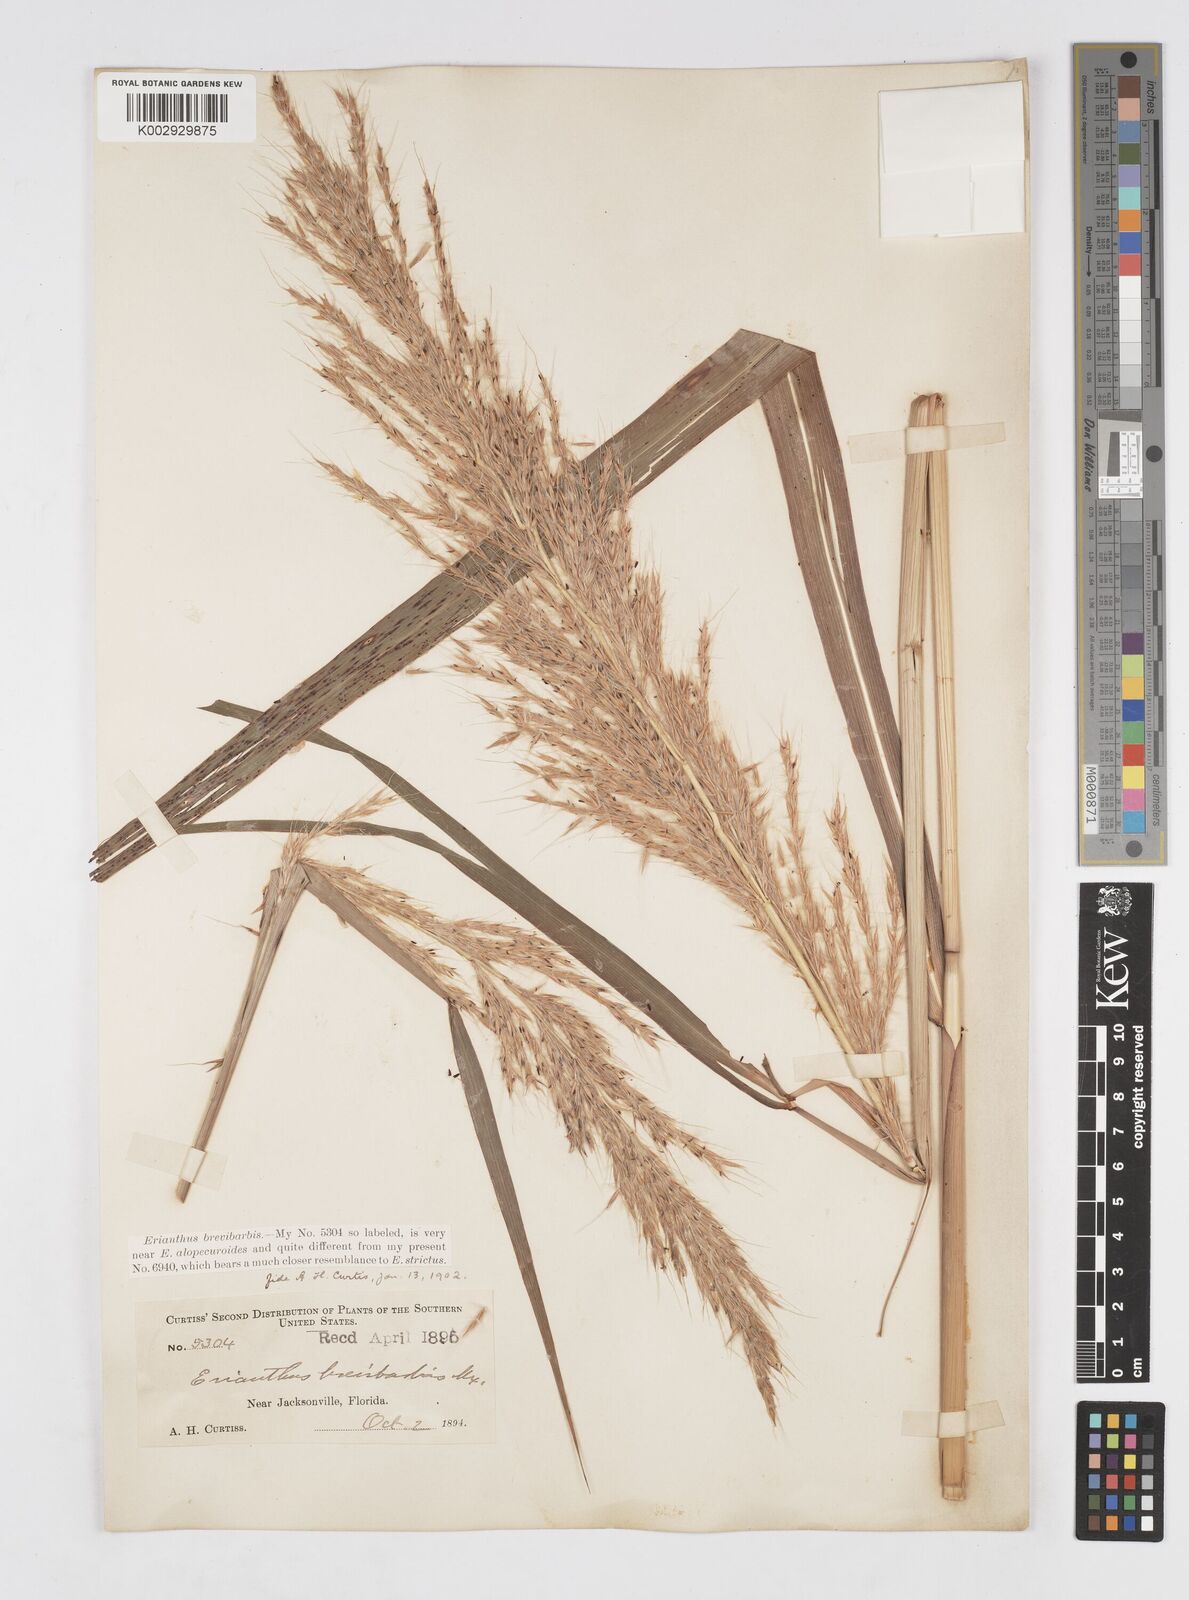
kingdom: Plantae
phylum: Tracheophyta
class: Liliopsida
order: Poales
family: Poaceae
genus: Erianthus
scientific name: Erianthus contortus
